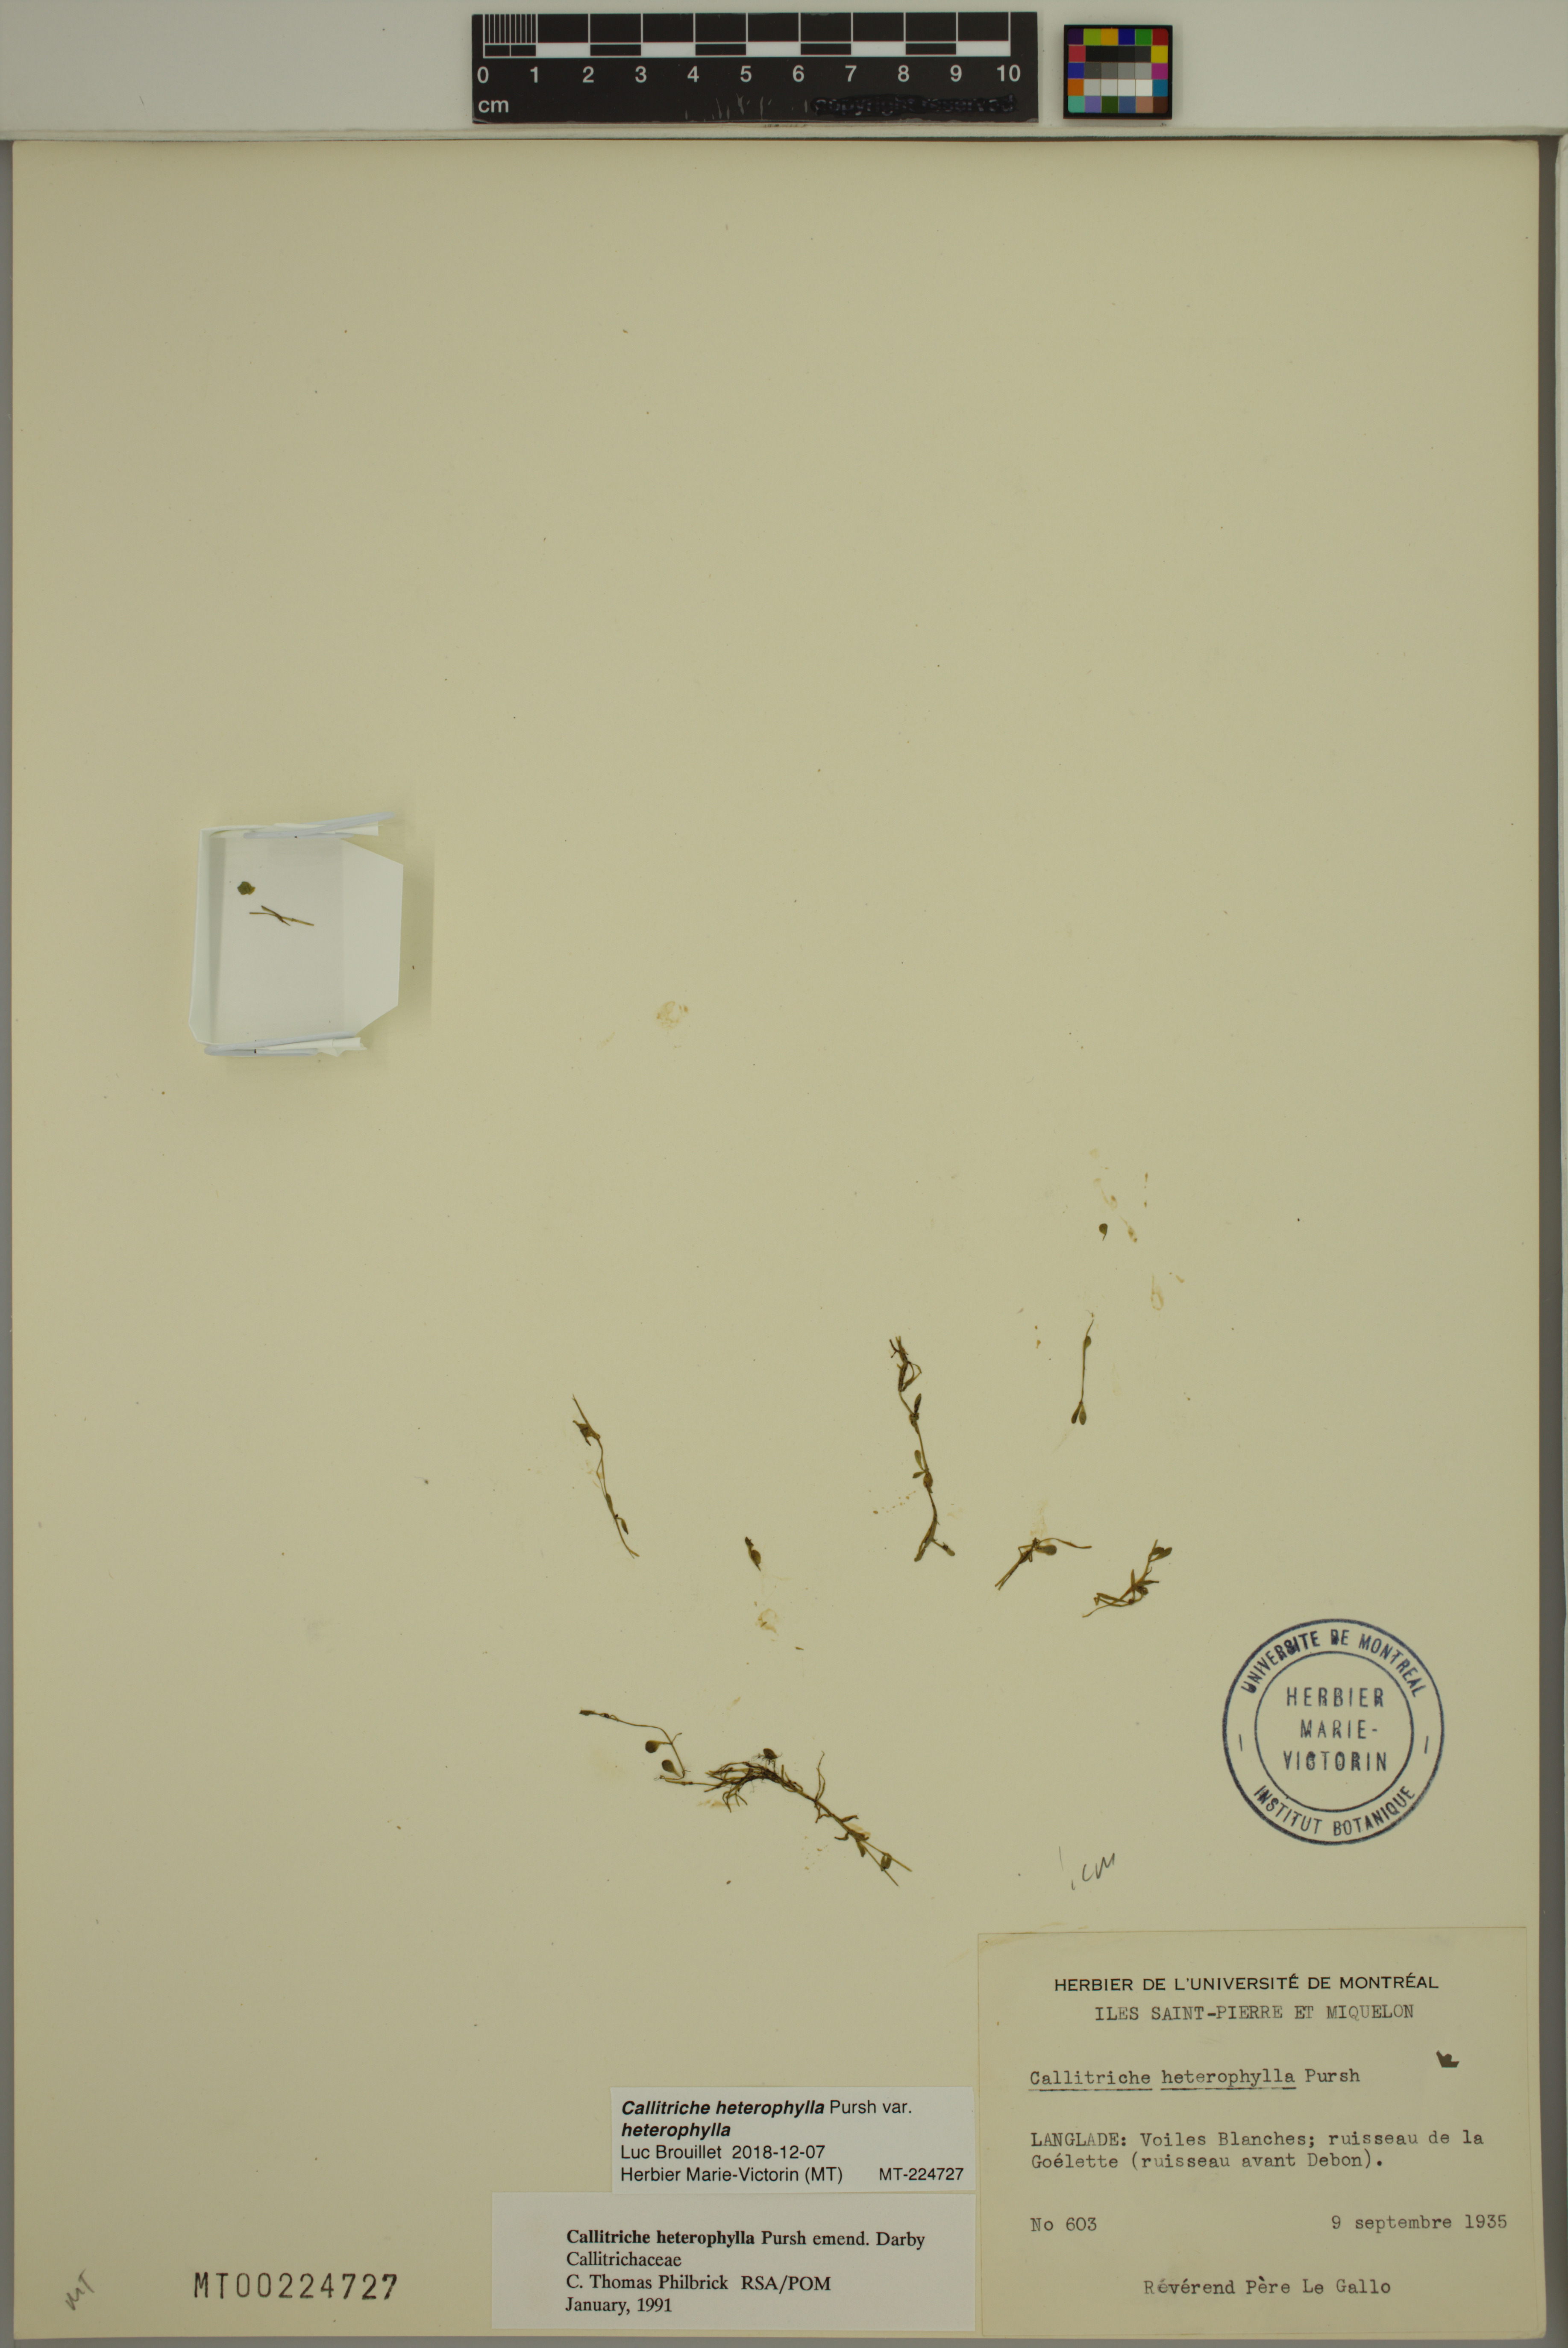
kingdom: Plantae
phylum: Tracheophyta
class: Magnoliopsida
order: Lamiales
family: Plantaginaceae
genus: Callitriche
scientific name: Callitriche heterophylla
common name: Two-headed water-starwort
